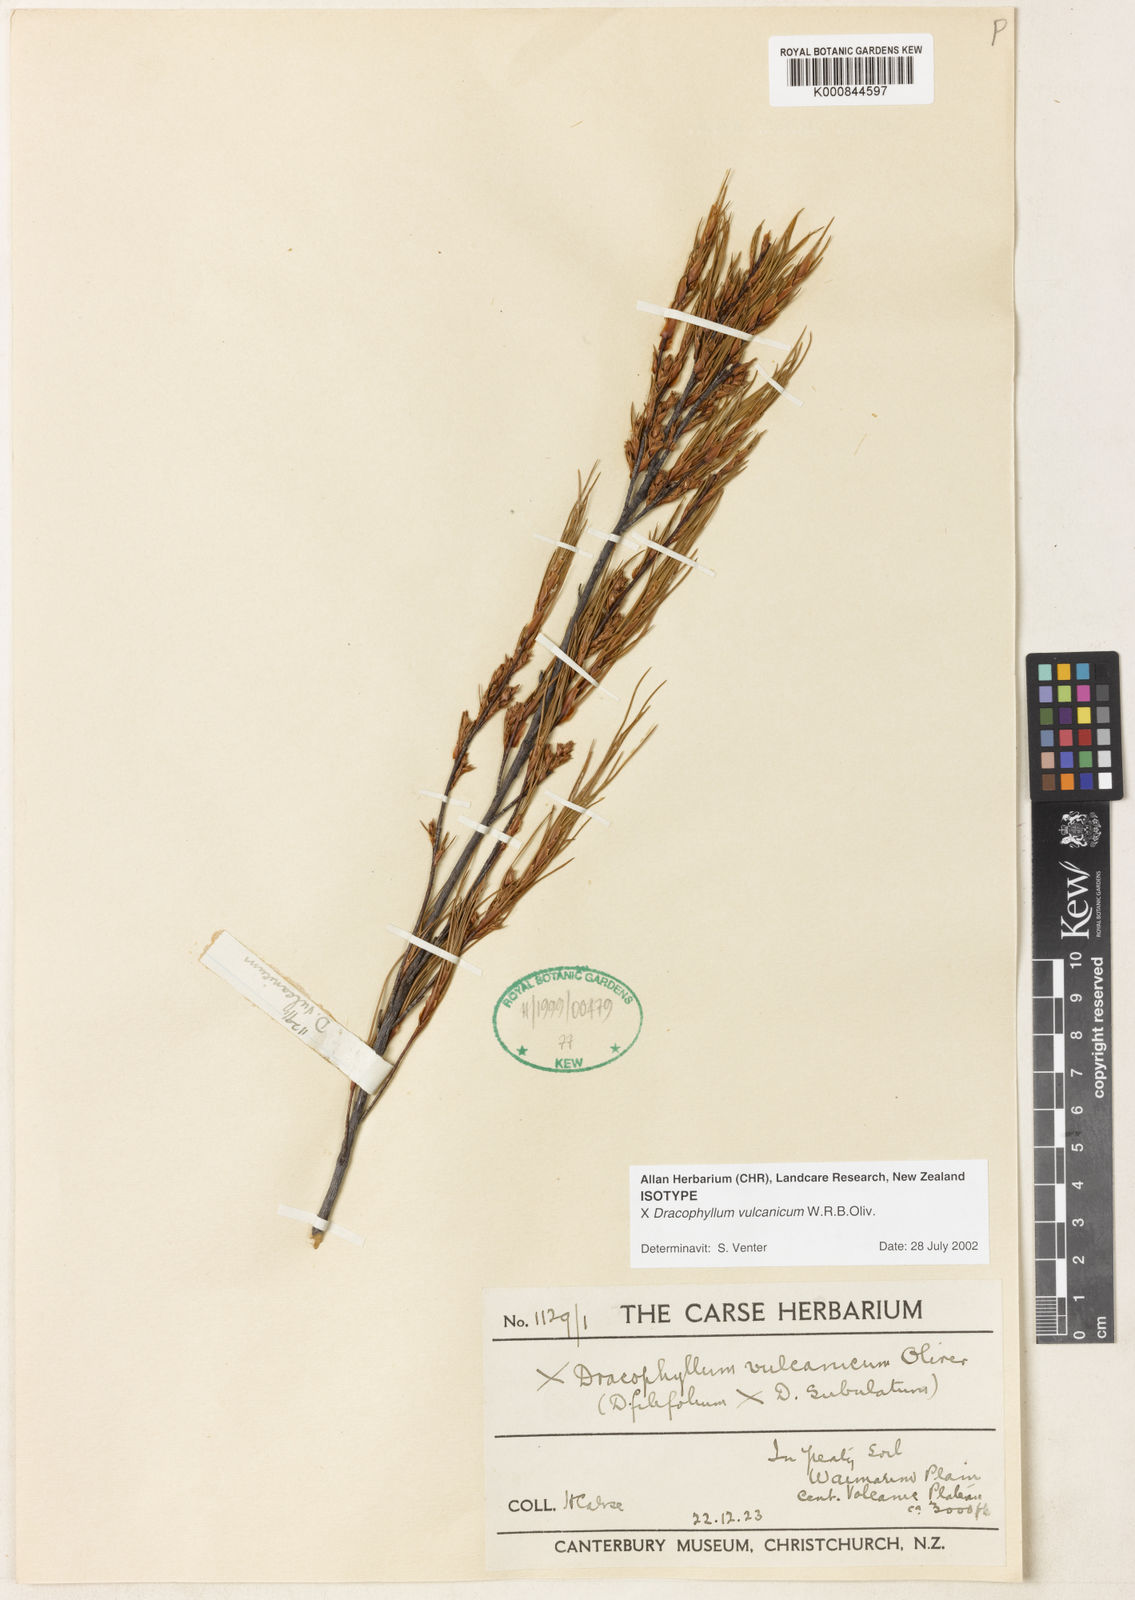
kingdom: Plantae
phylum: Tracheophyta
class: Magnoliopsida
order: Ericales
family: Ericaceae
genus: Dracophyllum
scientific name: Dracophyllum vulcanicum
